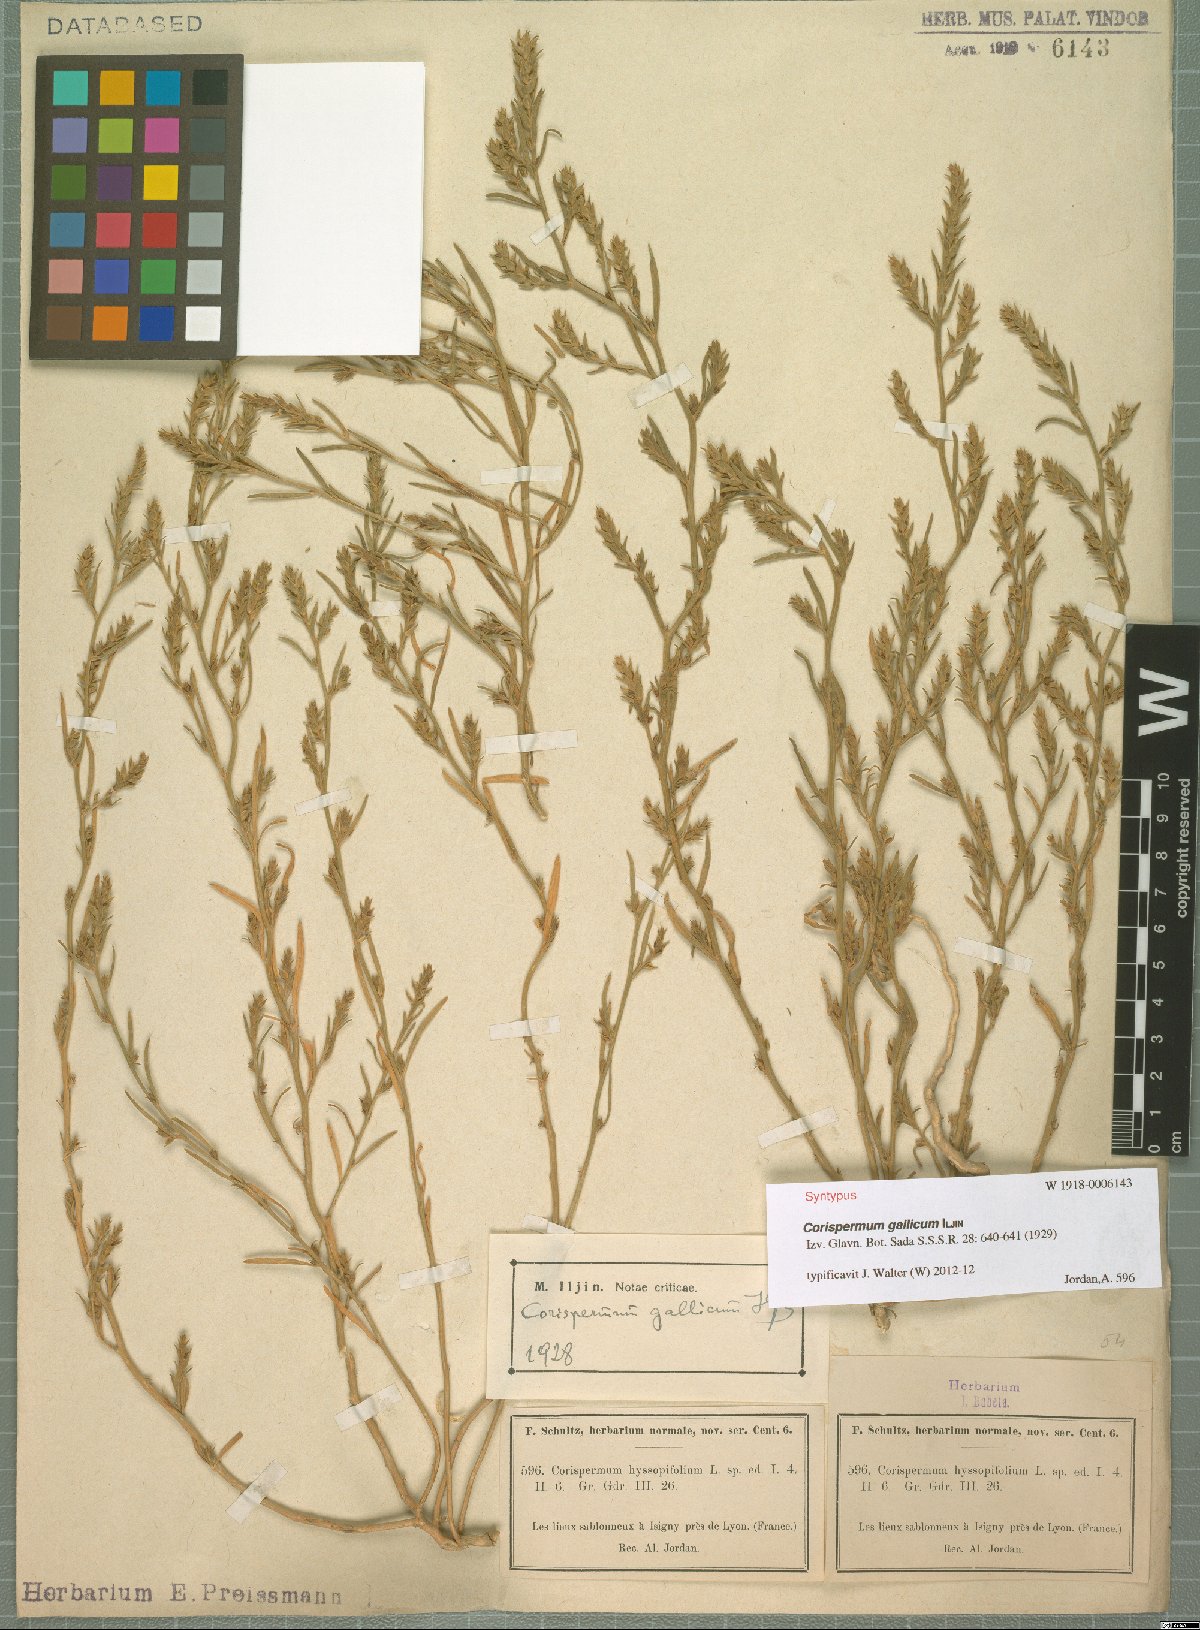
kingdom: Plantae
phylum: Tracheophyta
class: Magnoliopsida
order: Caryophyllales
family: Amaranthaceae
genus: Corispermum
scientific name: Corispermum gallicum
